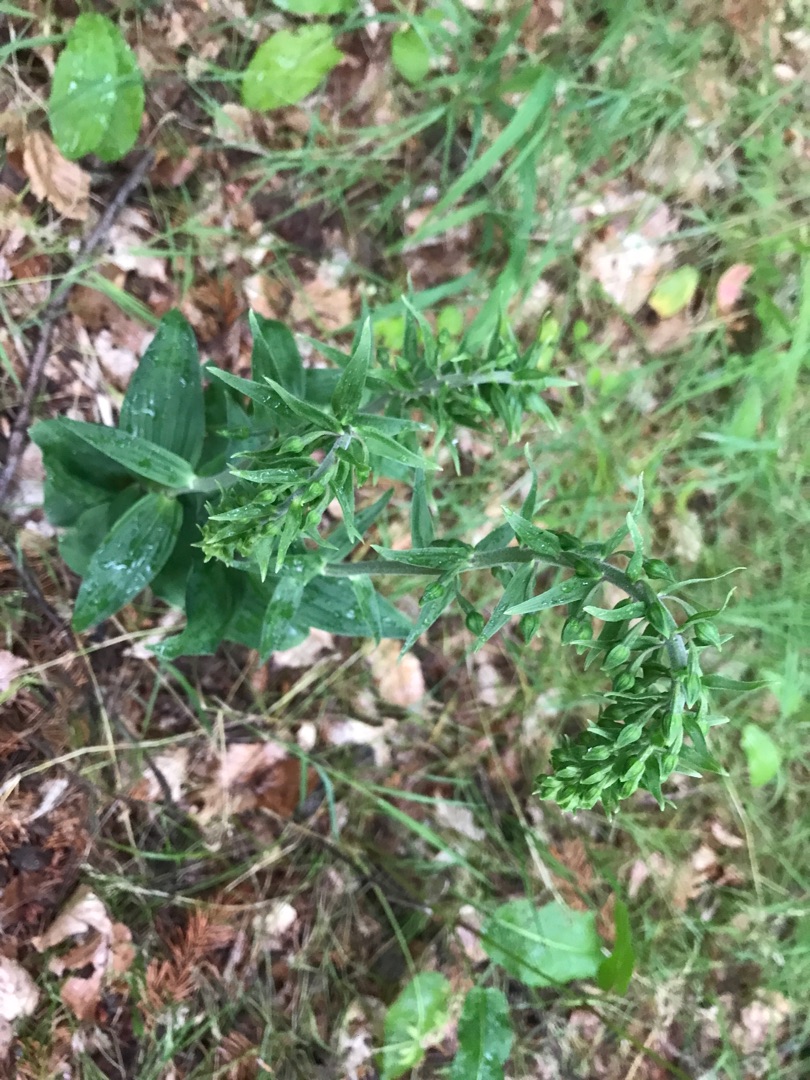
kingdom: Plantae
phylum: Tracheophyta
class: Liliopsida
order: Asparagales
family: Orchidaceae
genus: Epipactis
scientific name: Epipactis helleborine
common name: Skov-hullæbe
